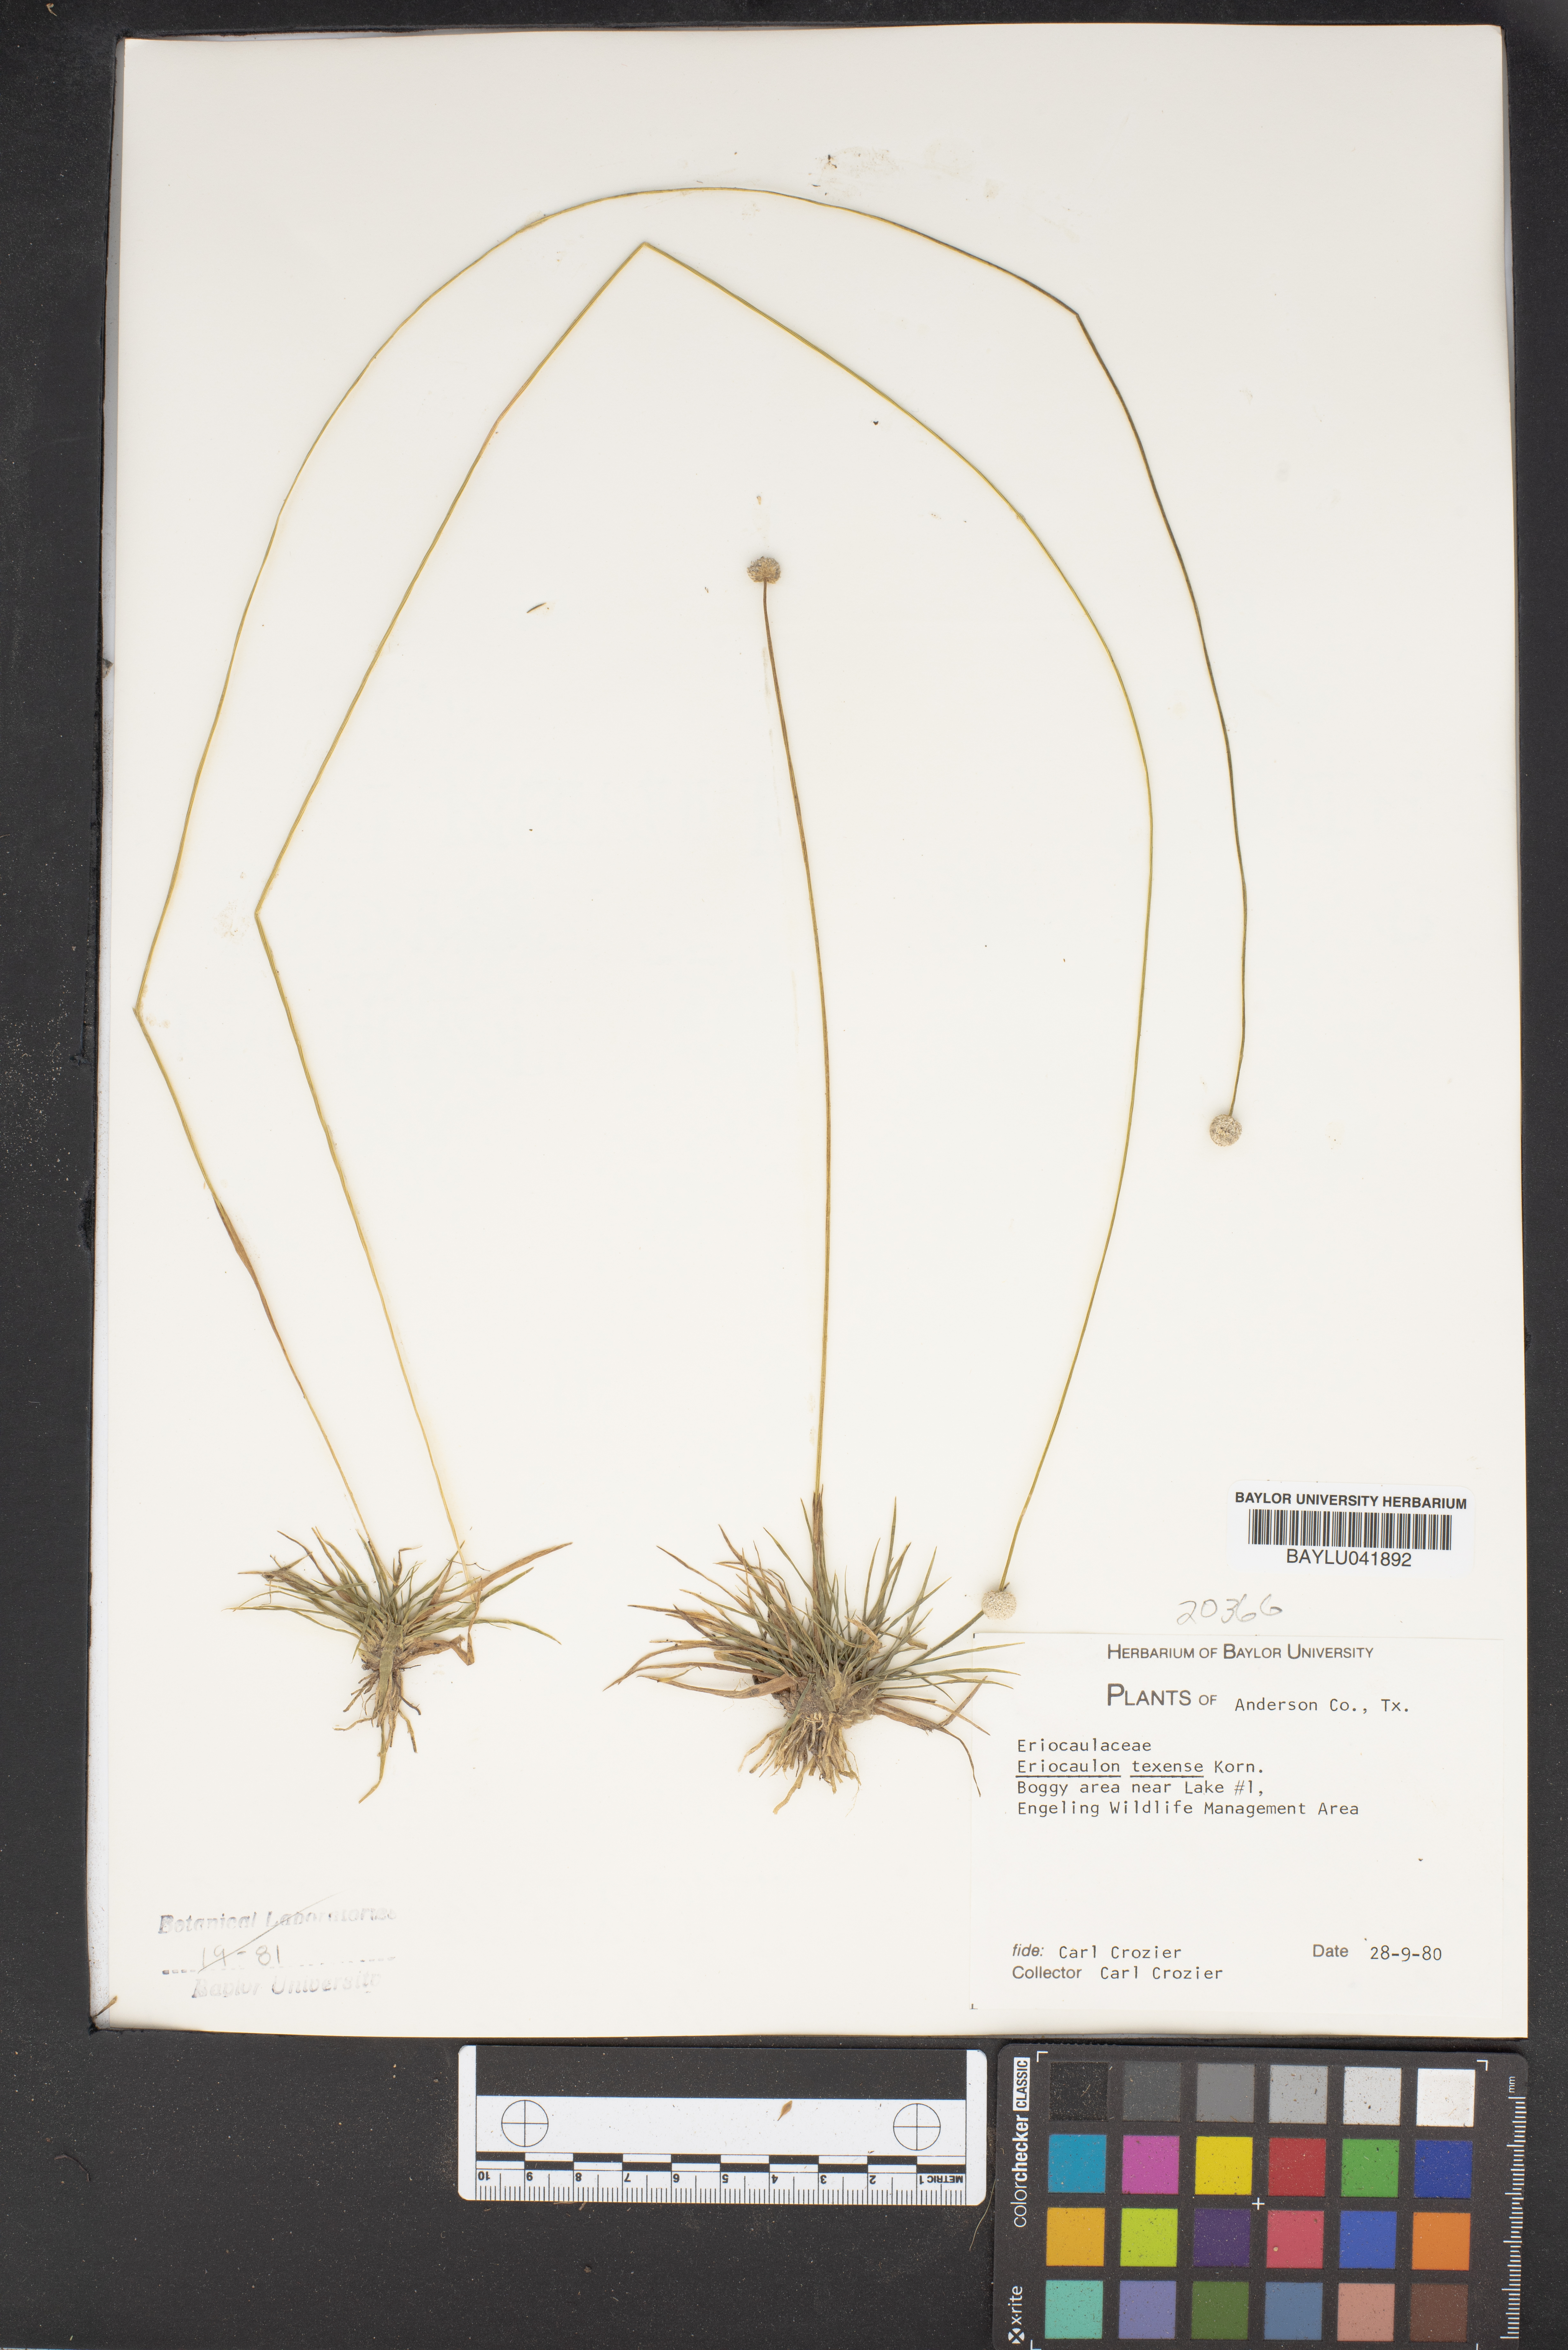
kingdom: Plantae
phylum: Tracheophyta
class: Liliopsida
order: Poales
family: Eriocaulaceae
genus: Eriocaulon
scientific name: Eriocaulon texense
